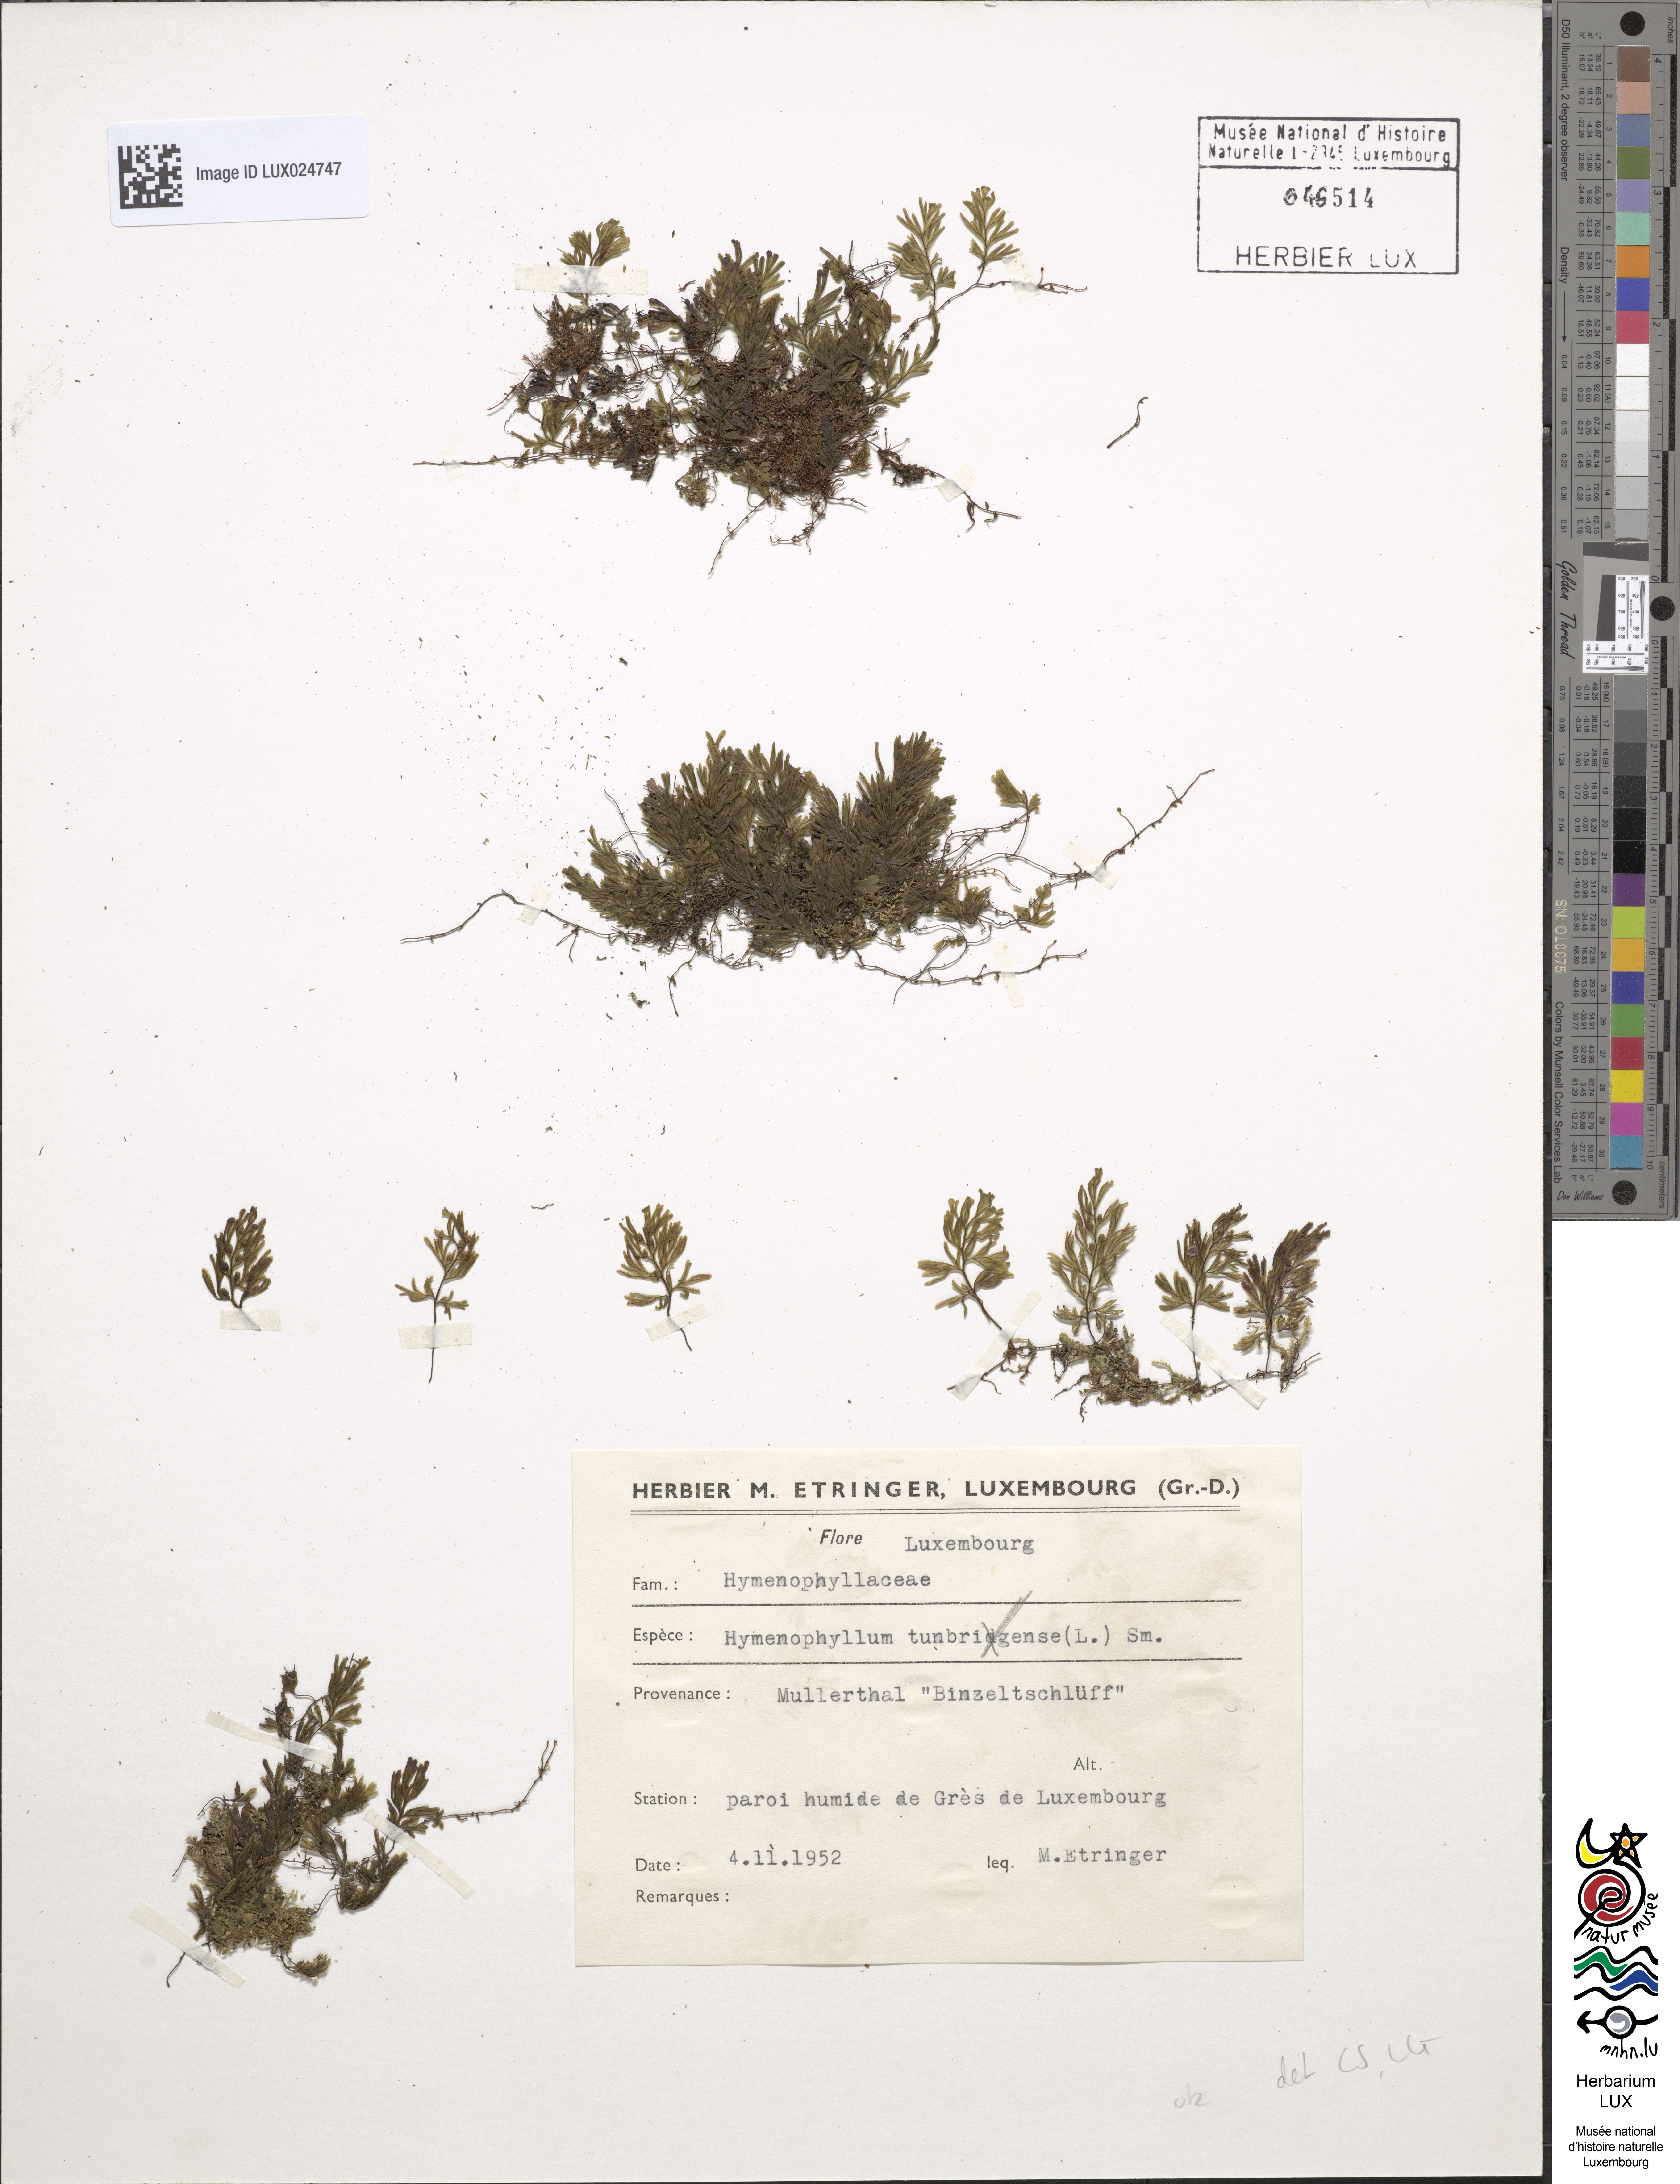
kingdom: Plantae
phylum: Tracheophyta
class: Polypodiopsida
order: Hymenophyllales
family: Hymenophyllaceae
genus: Hymenophyllum
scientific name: Hymenophyllum tunbrigense
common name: Tunbridge filmy fern
